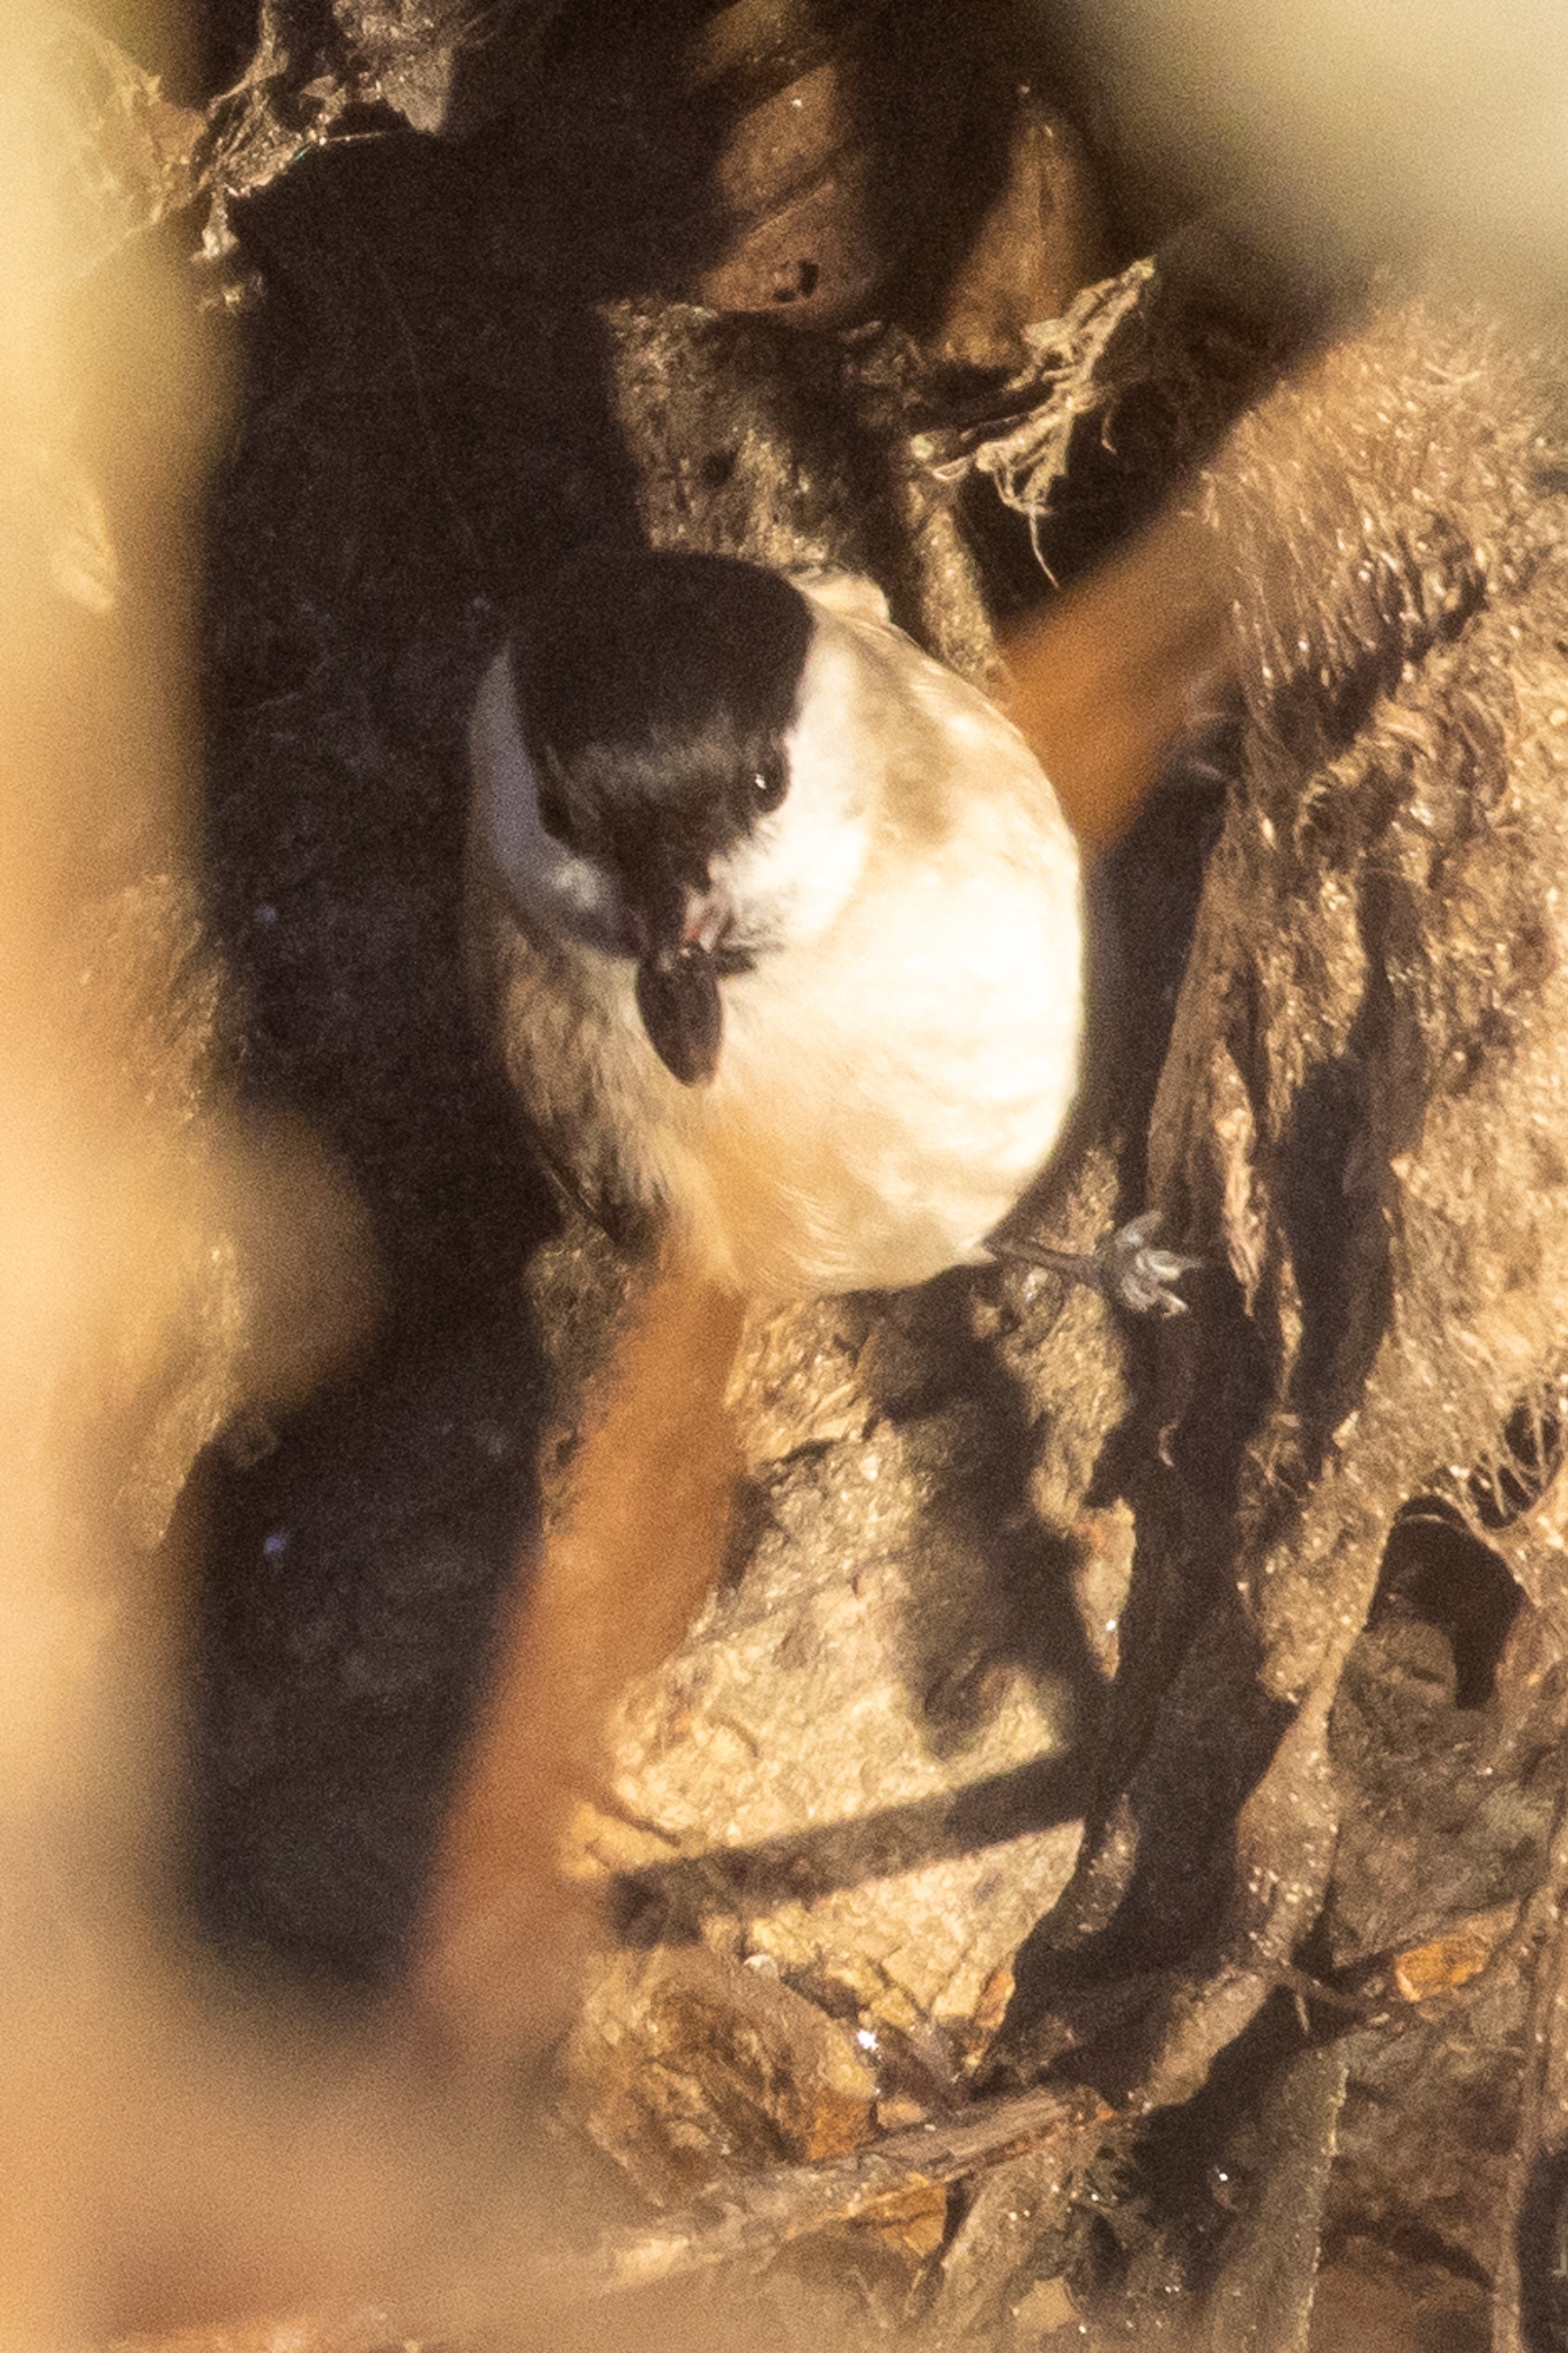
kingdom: Animalia
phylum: Chordata
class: Aves
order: Passeriformes
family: Paridae
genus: Poecile
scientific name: Poecile palustris
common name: Sumpmejse
